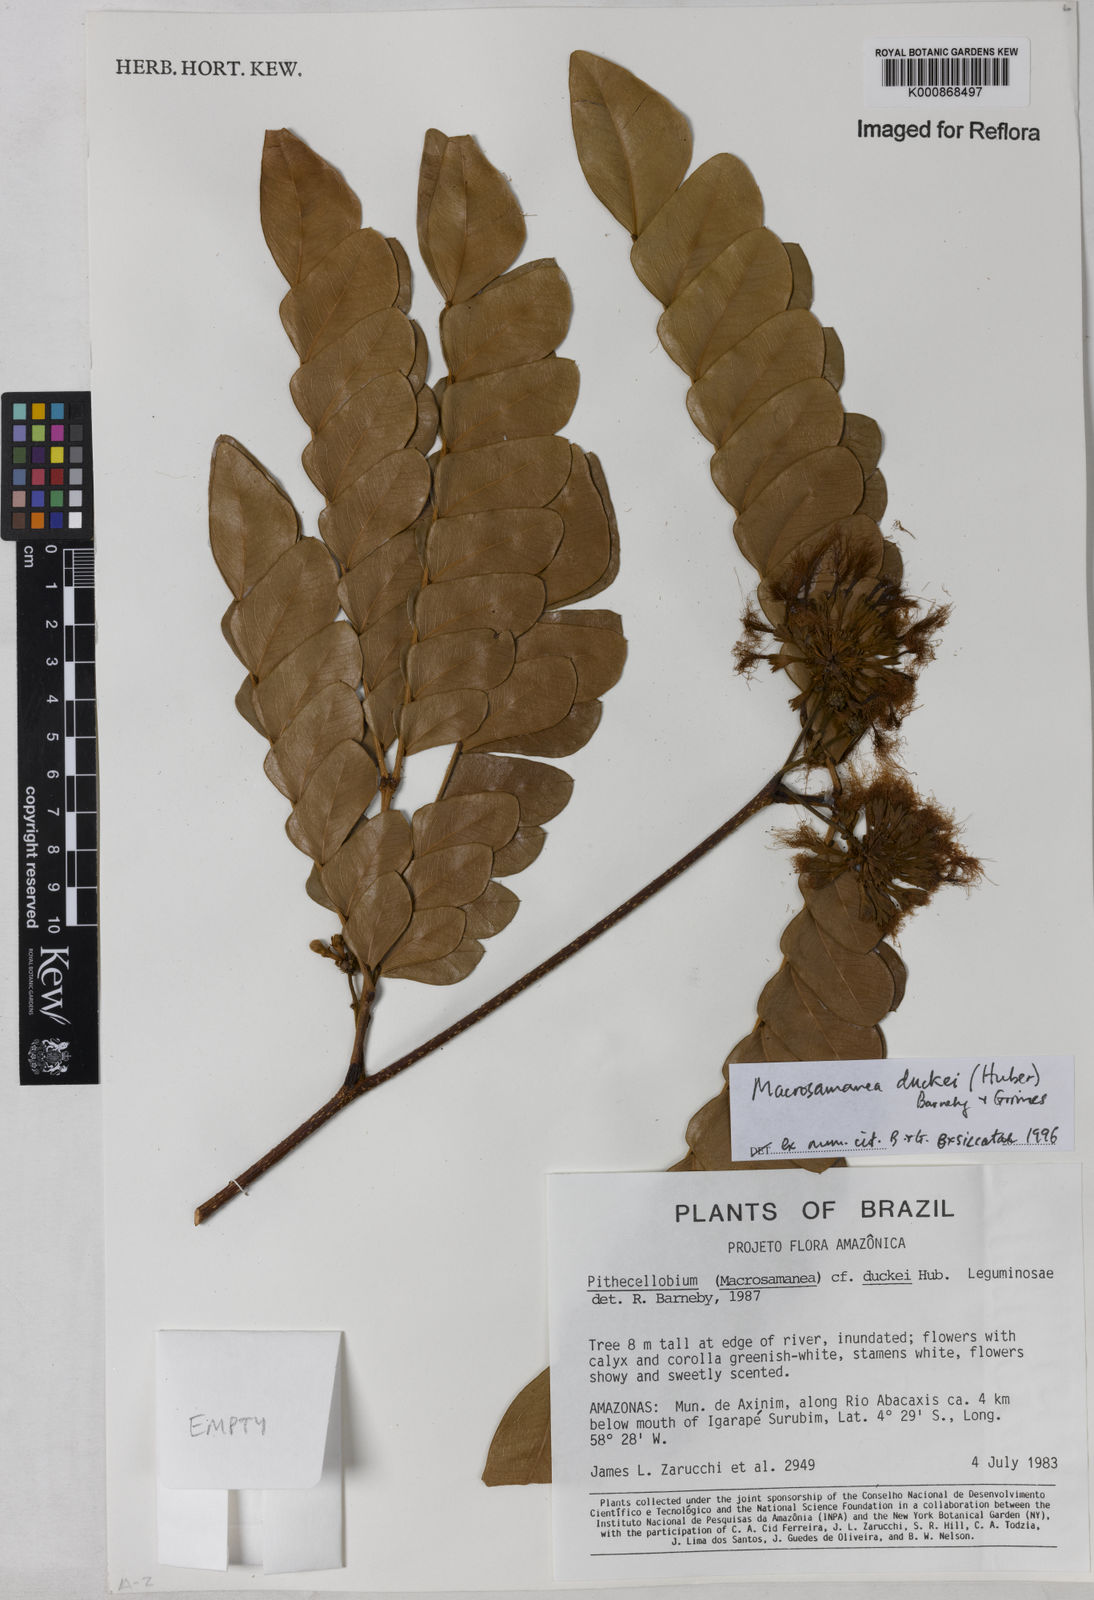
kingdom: Plantae
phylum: Tracheophyta
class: Magnoliopsida
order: Fabales
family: Fabaceae
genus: Macrosamanea
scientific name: Macrosamanea duckei
